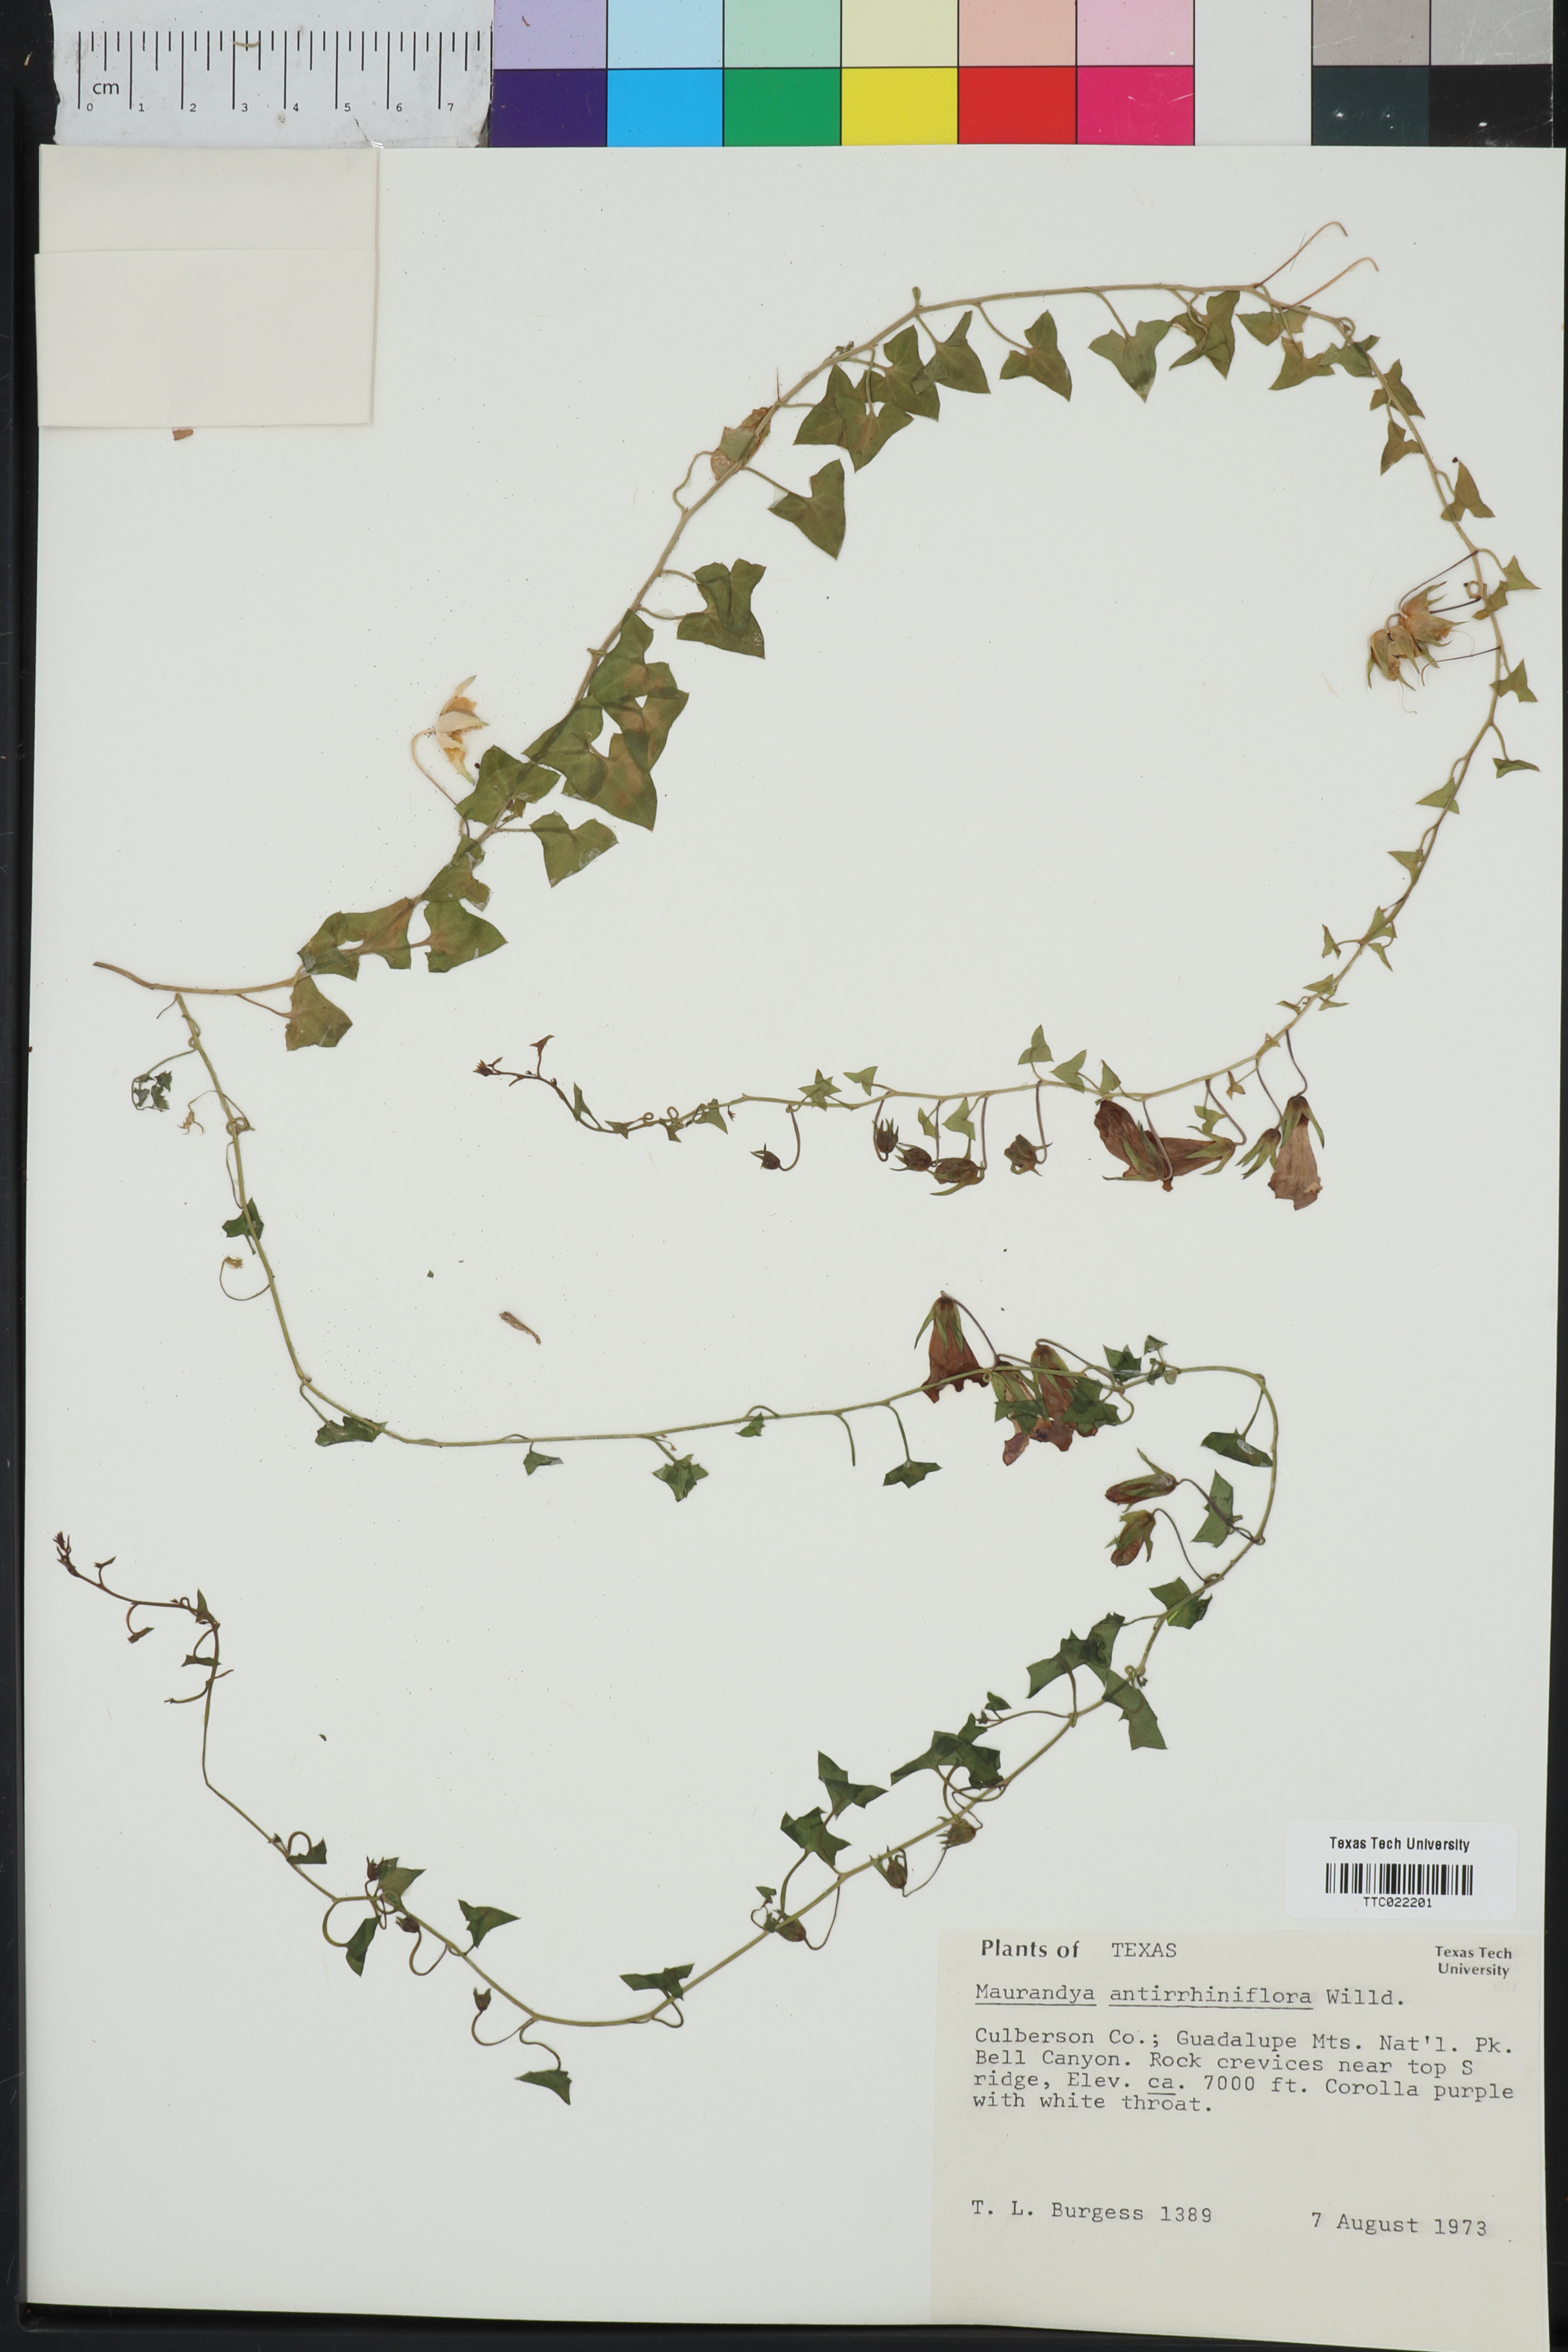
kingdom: Plantae
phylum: Tracheophyta
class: Magnoliopsida
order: Lamiales
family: Plantaginaceae
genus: Maurandella
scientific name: Maurandella antirrhiniflora
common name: Violet twining-snapdragon
